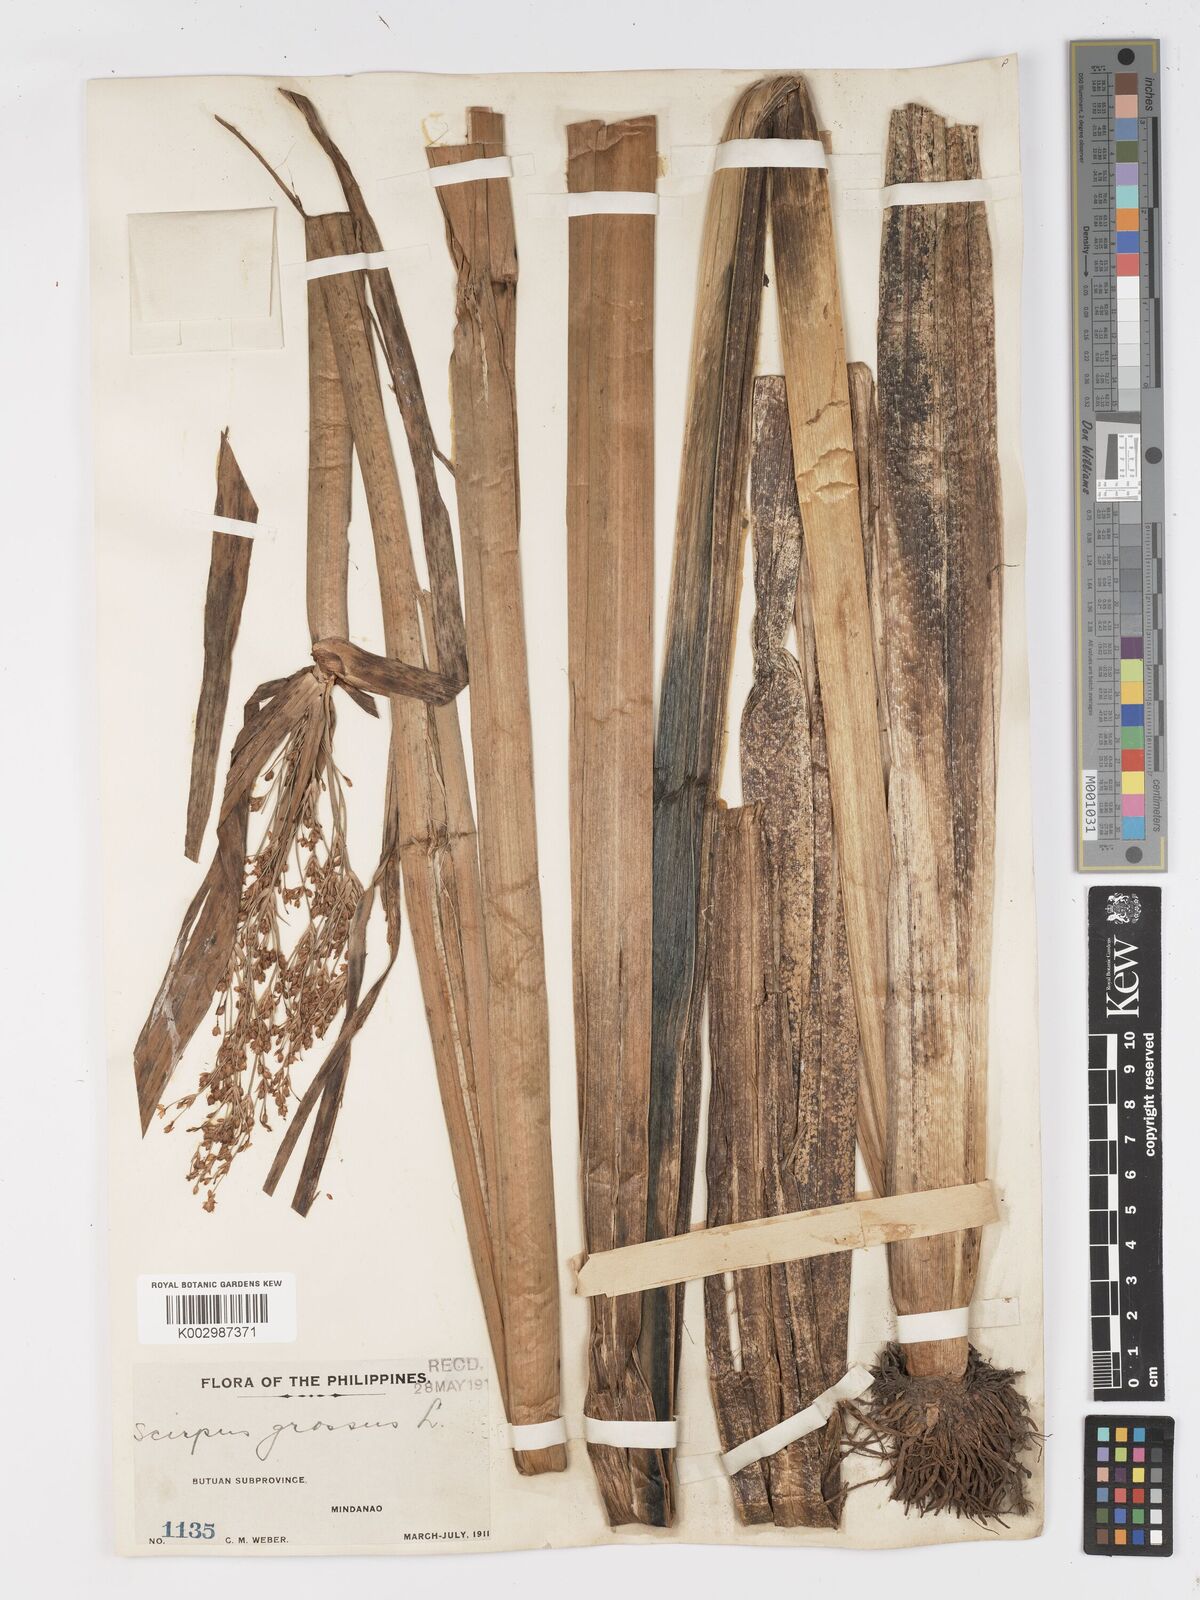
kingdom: Plantae
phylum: Tracheophyta
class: Liliopsida
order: Poales
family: Cyperaceae
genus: Actinoscirpus
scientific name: Actinoscirpus grossus
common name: Giant bur rush
